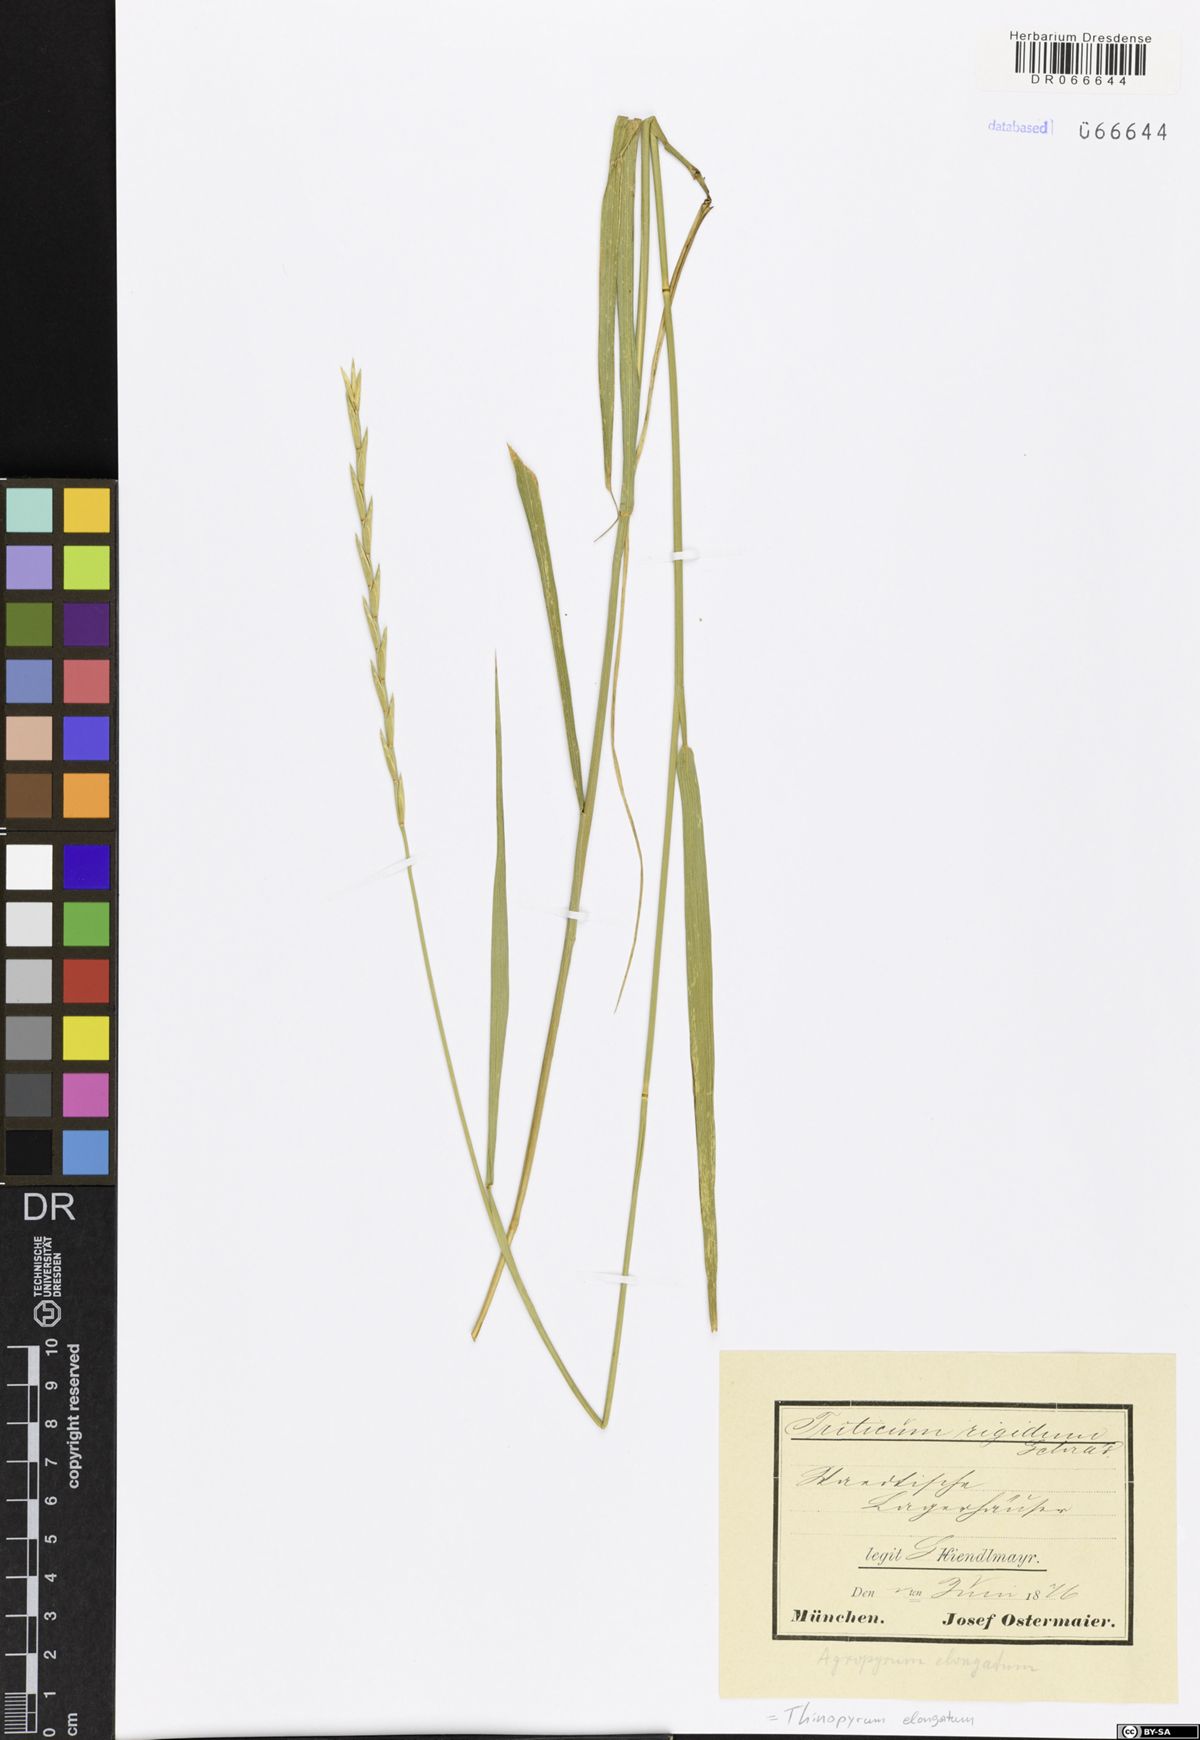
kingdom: Plantae
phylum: Tracheophyta
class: Liliopsida
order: Poales
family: Poaceae
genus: Thinopyrum
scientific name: Thinopyrum elongatum
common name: Tall wheatgrass
